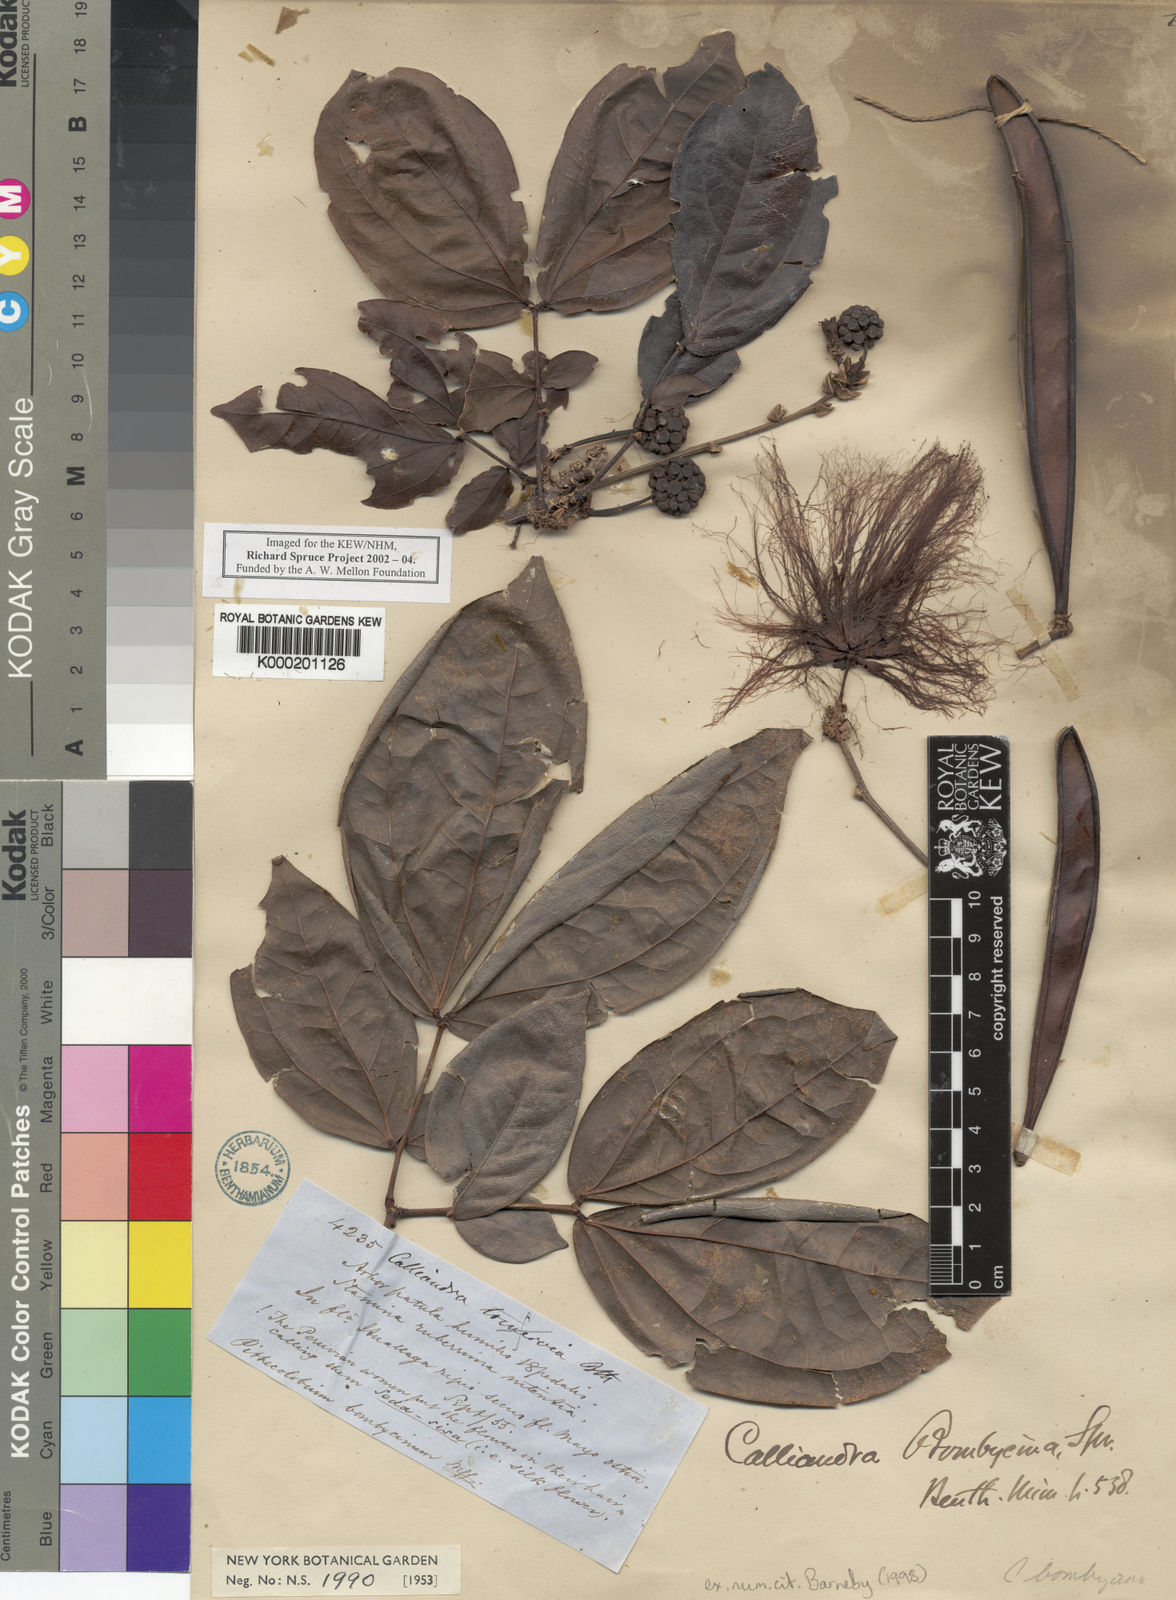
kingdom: Plantae
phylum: Tracheophyta
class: Magnoliopsida
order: Fabales
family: Fabaceae
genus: Calliandra
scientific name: Calliandra bombycina
